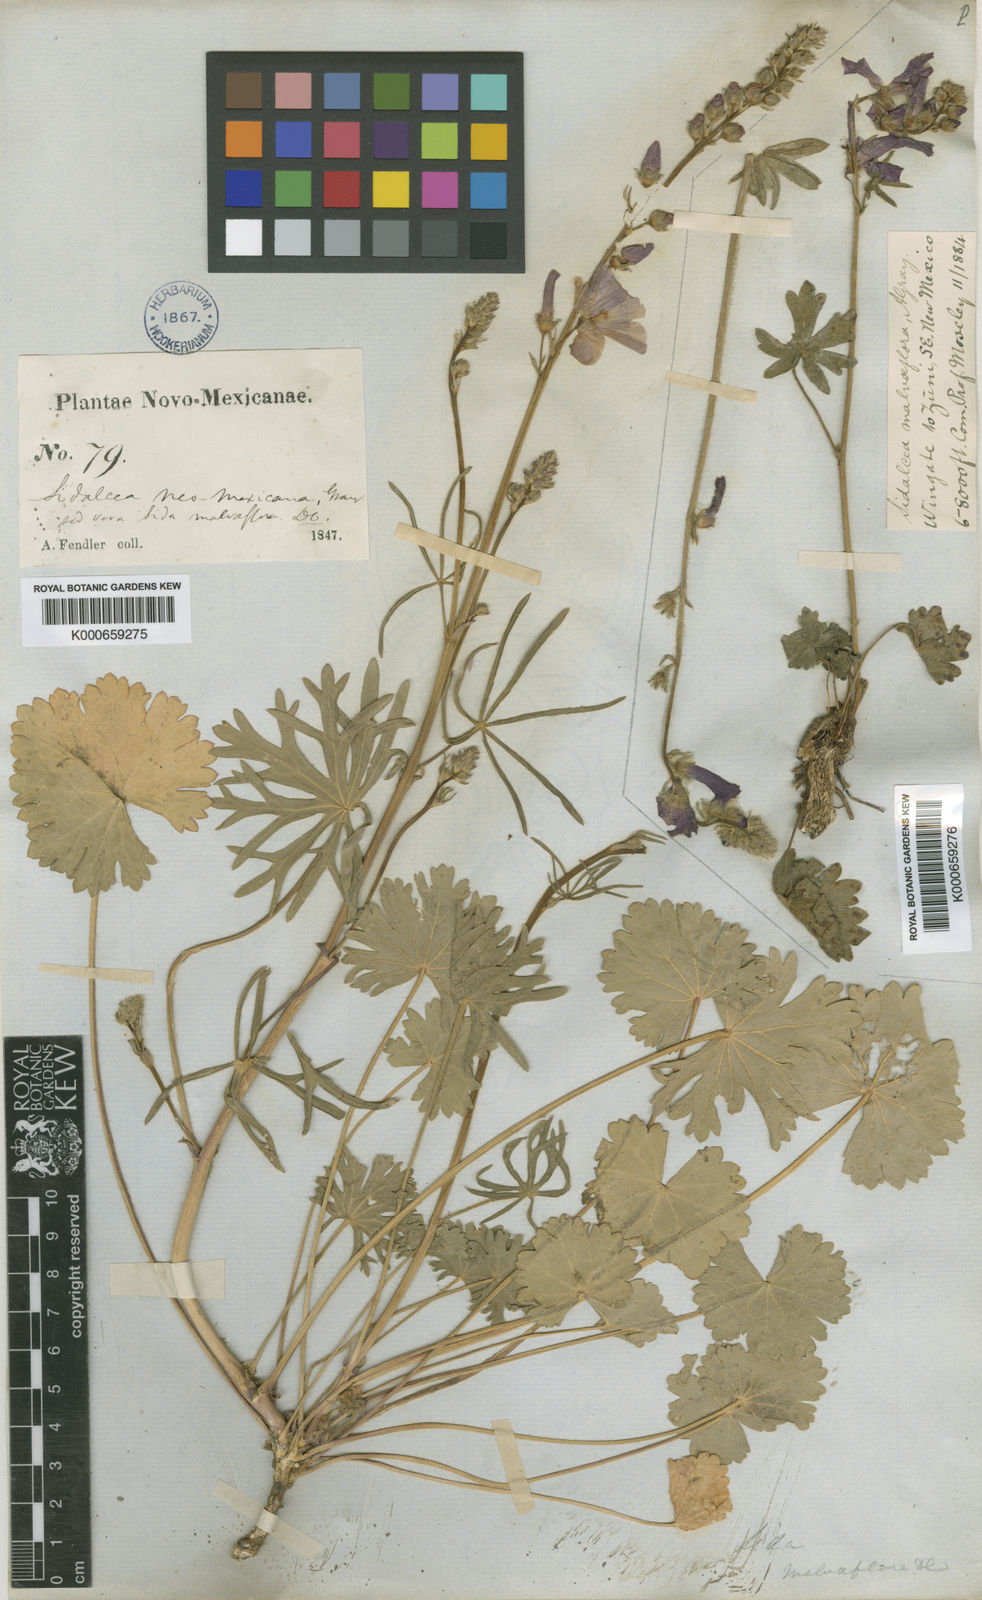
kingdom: Plantae
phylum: Tracheophyta
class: Magnoliopsida
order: Malvales
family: Malvaceae
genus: Sidalcea
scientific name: Sidalcea neomexicana
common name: New mexico checker
